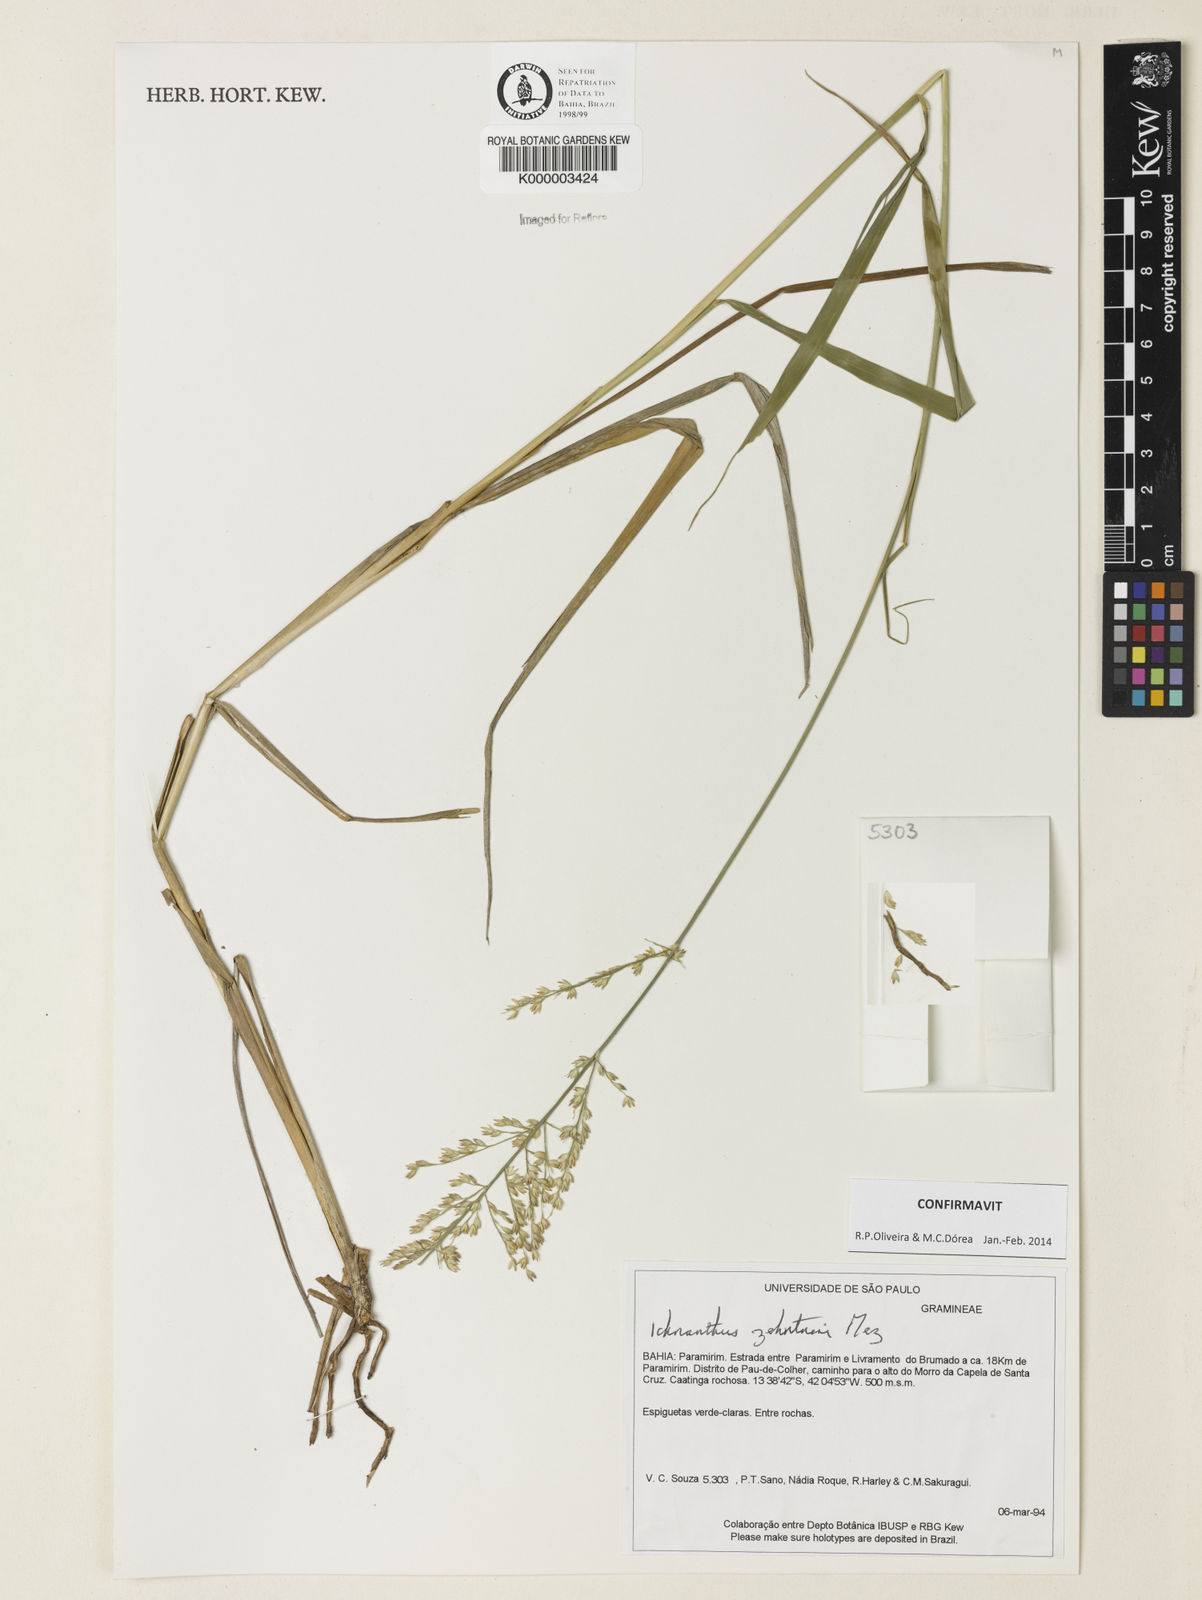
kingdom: Plantae
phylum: Tracheophyta
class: Liliopsida
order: Poales
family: Poaceae
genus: Ichnanthus
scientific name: Ichnanthus zehntneri
